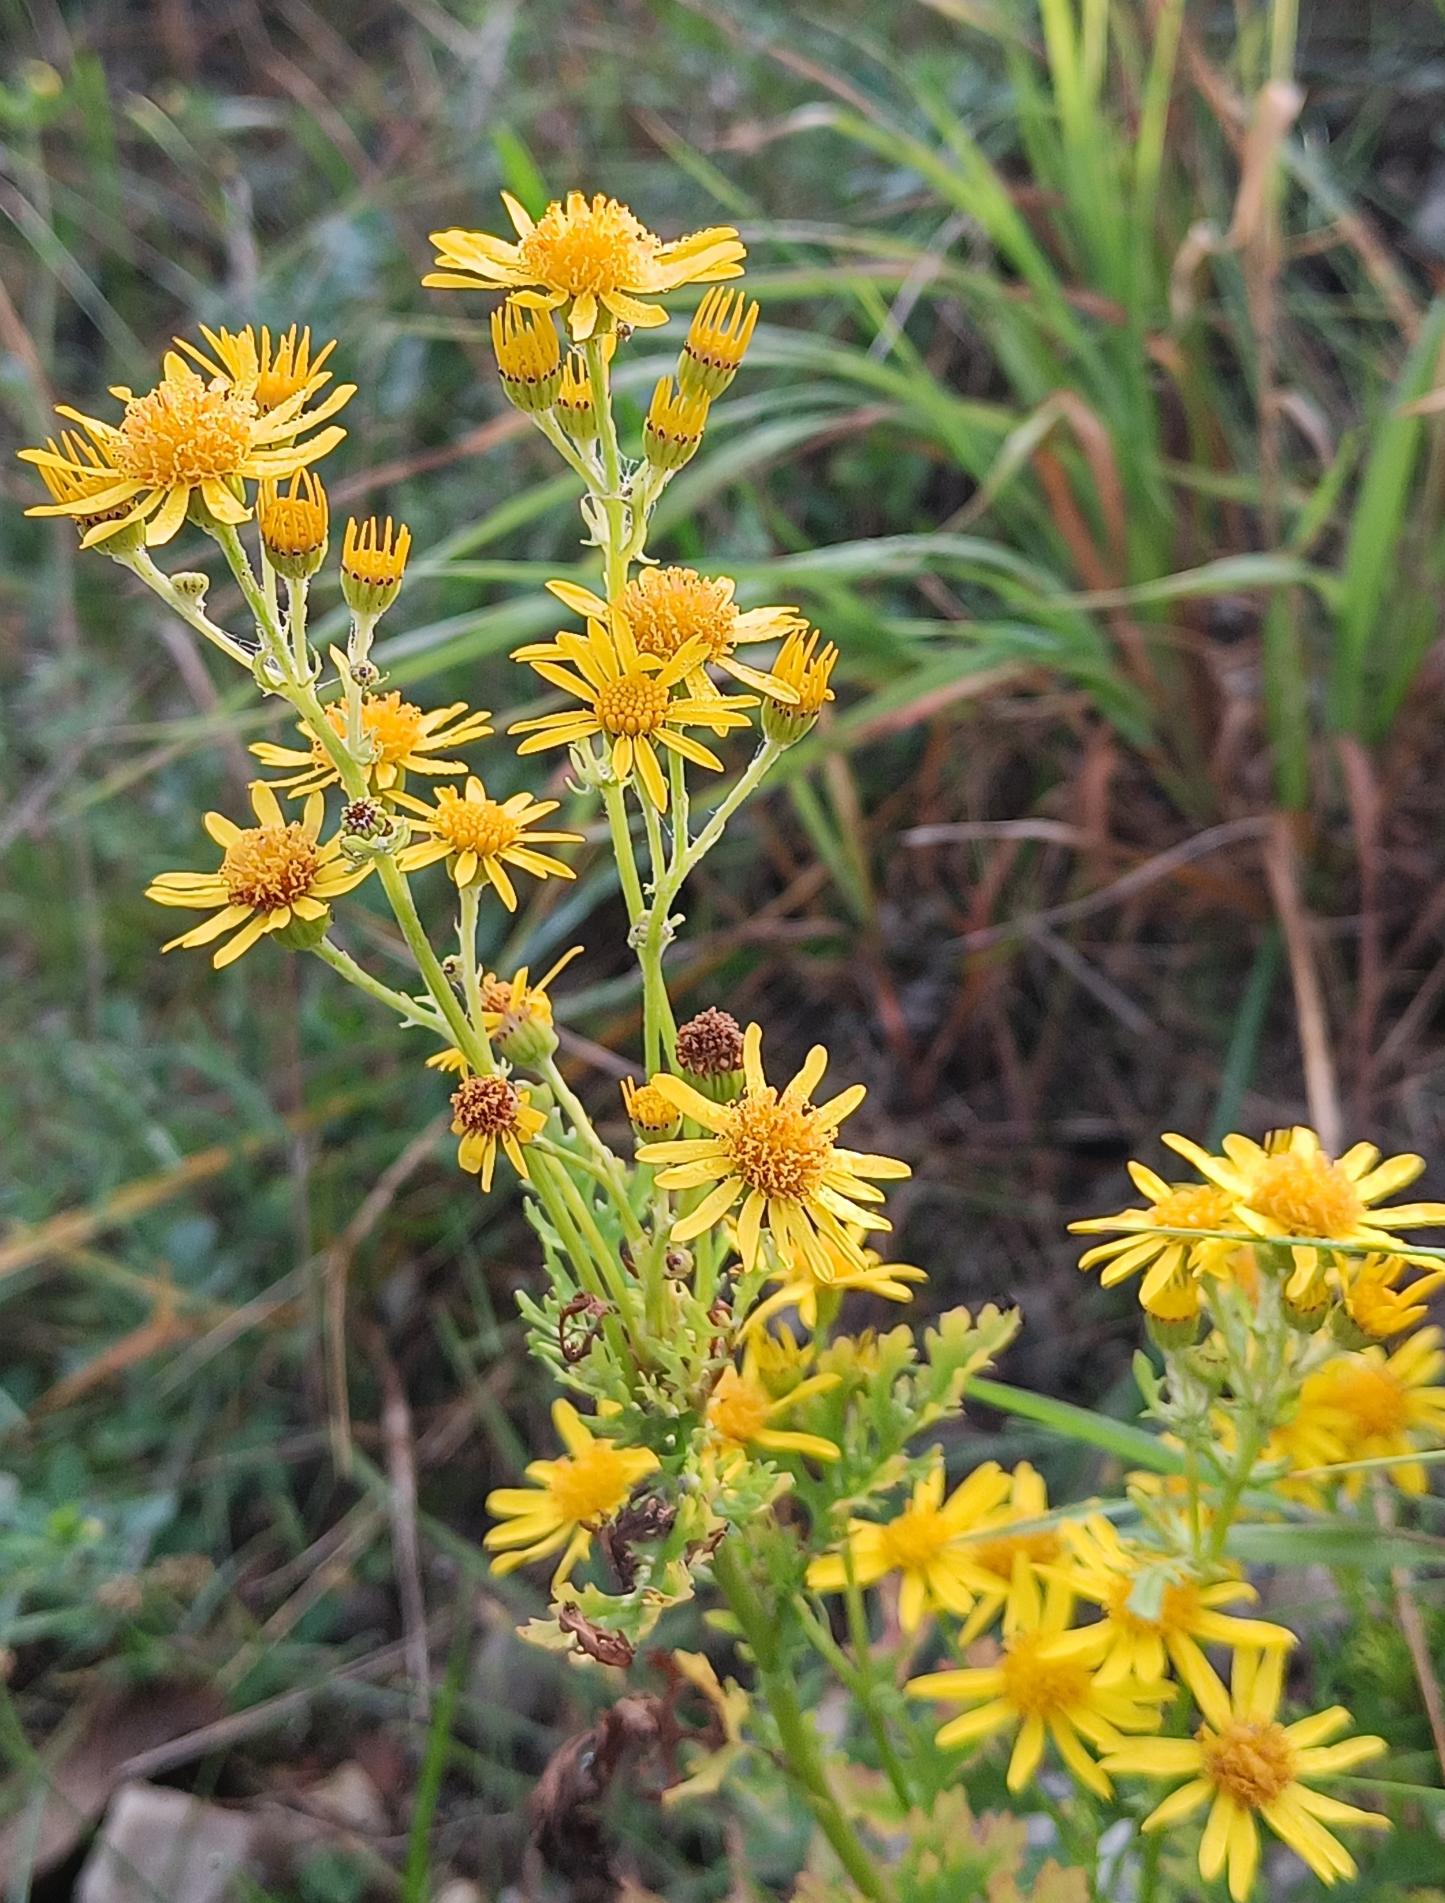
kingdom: Plantae
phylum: Tracheophyta
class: Magnoliopsida
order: Asterales
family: Asteraceae
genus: Jacobaea
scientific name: Jacobaea vulgaris
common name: Eng-brandbæger
